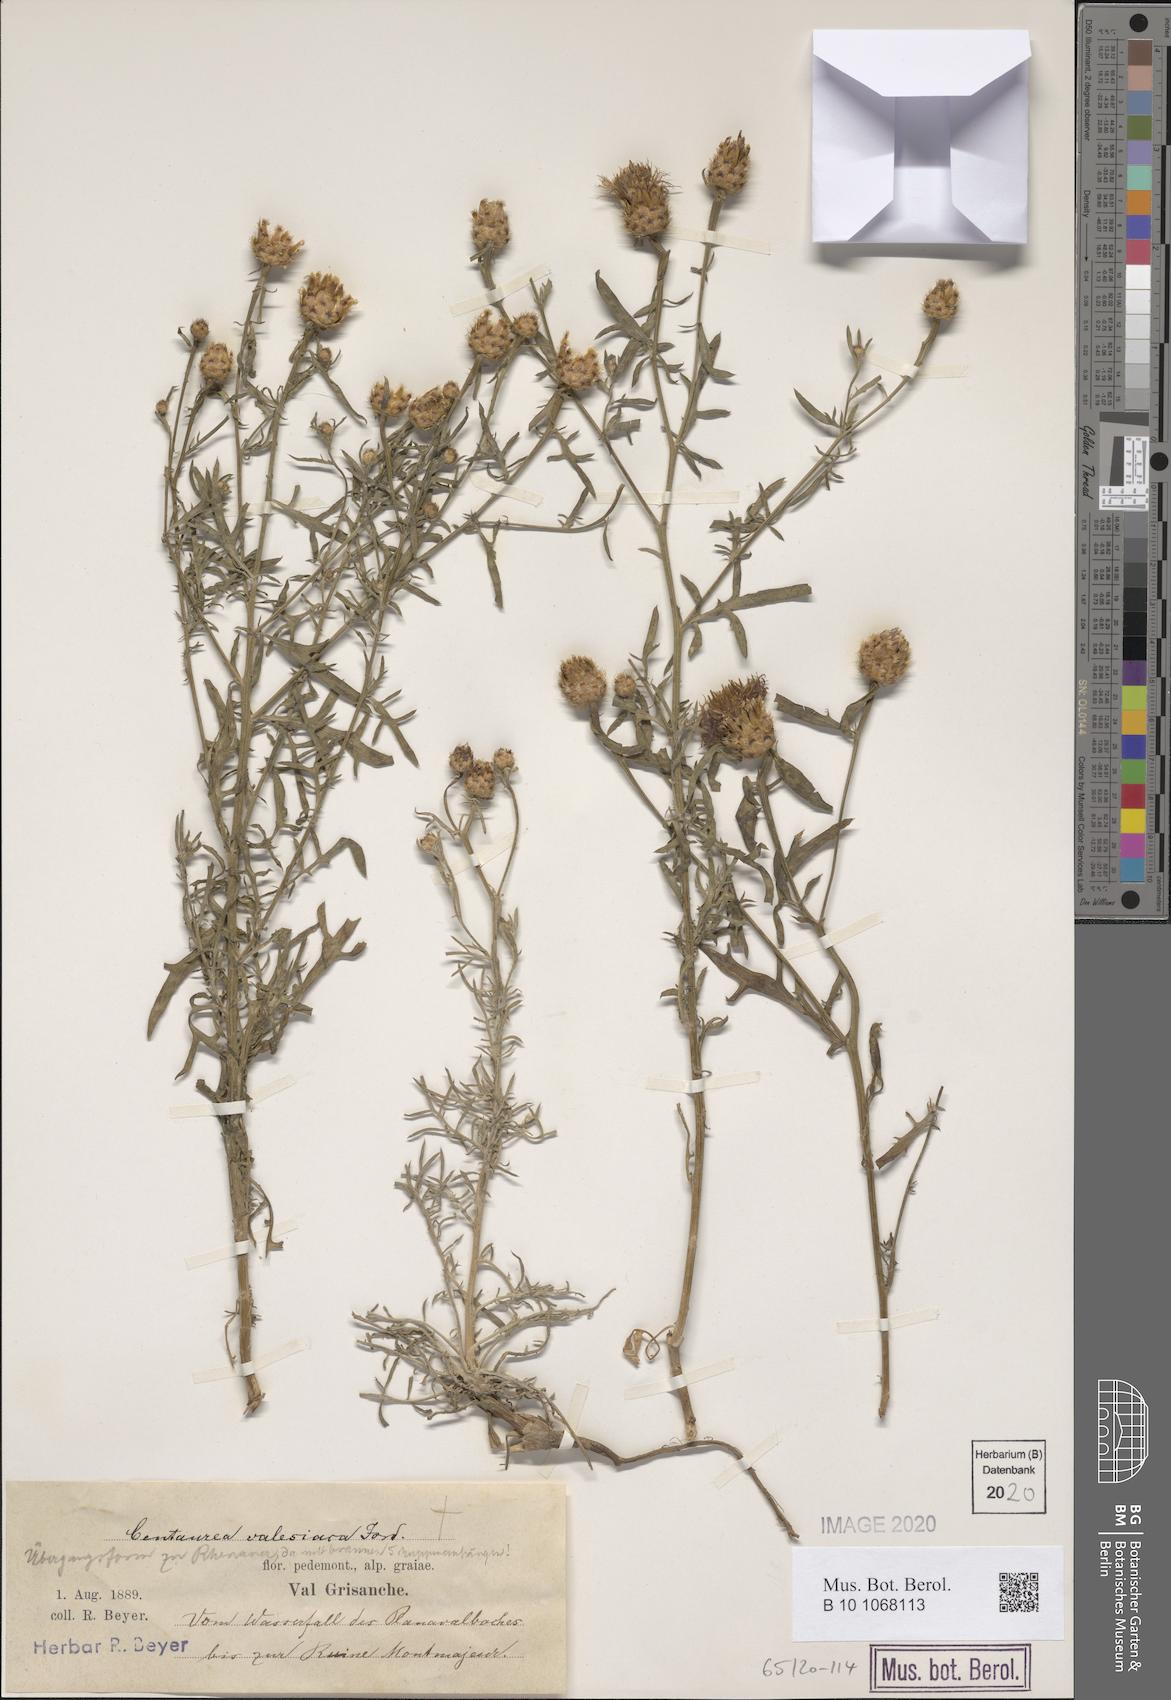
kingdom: Plantae
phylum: Tracheophyta
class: Magnoliopsida
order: Asterales
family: Asteraceae
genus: Centaurea
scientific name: Centaurea valesiaca
